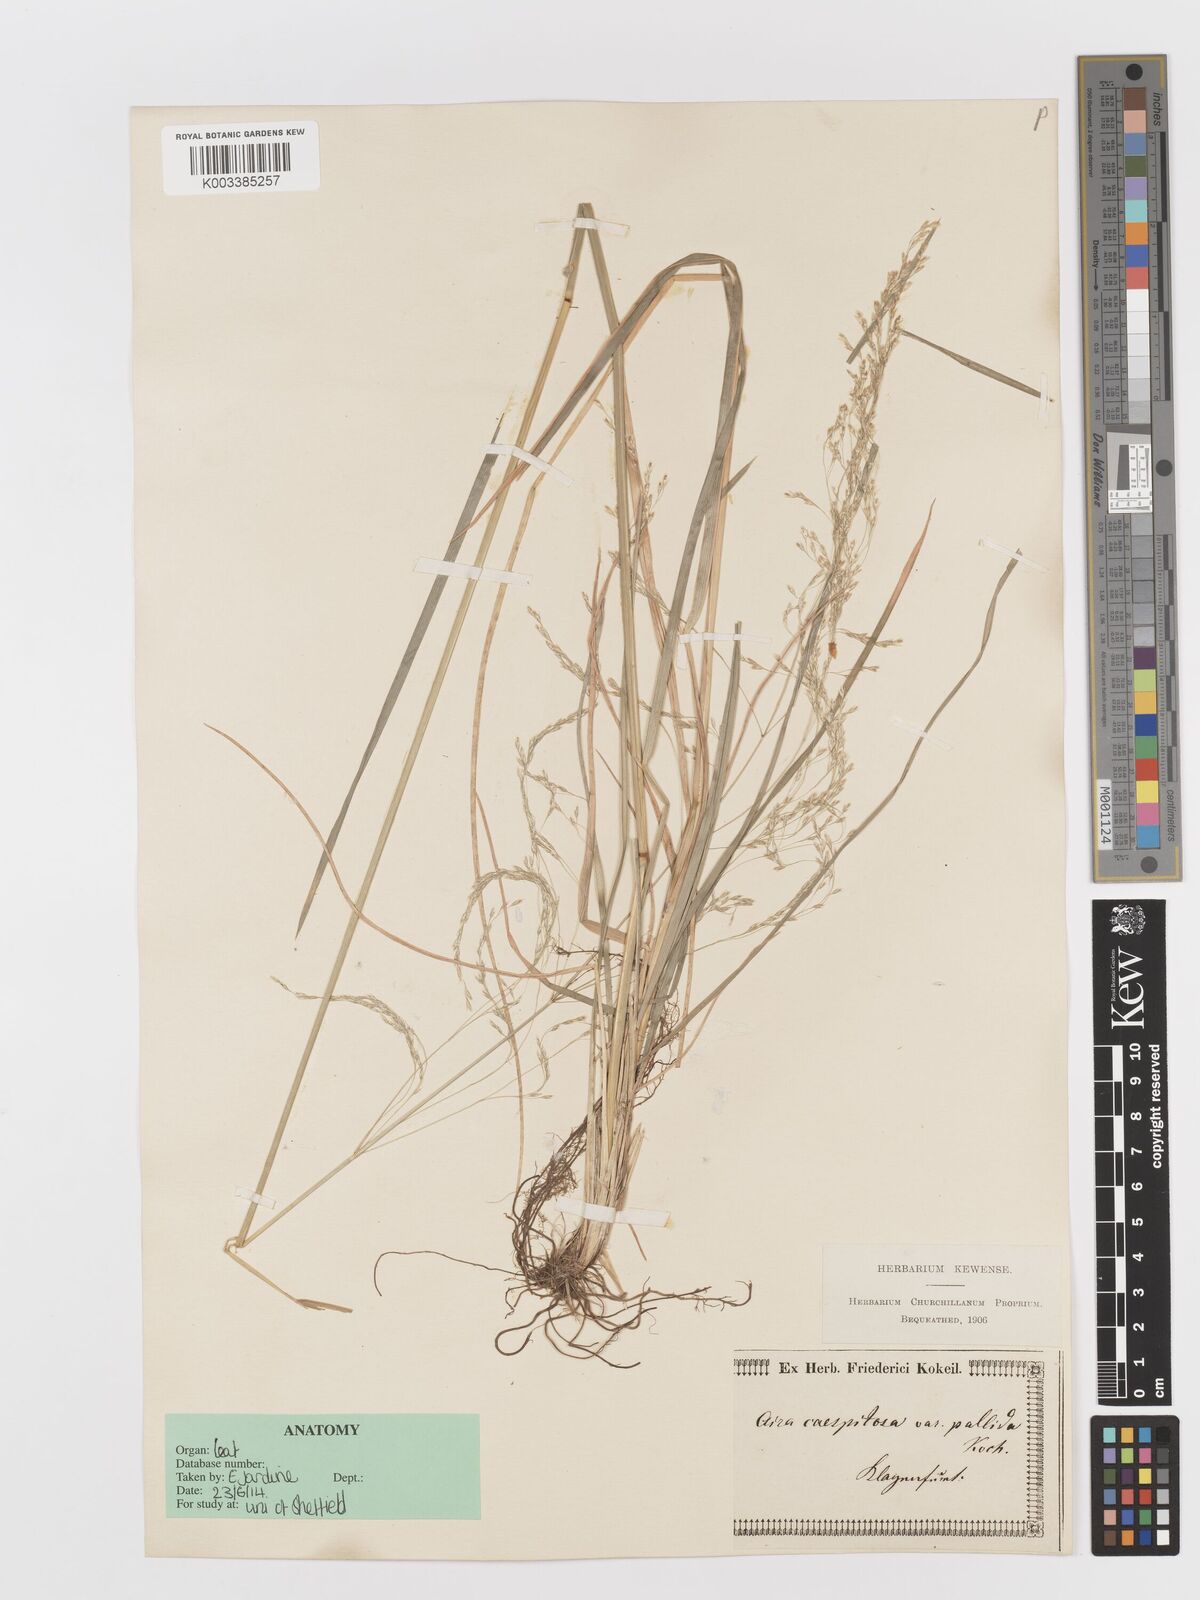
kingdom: Plantae
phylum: Tracheophyta
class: Liliopsida
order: Poales
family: Poaceae
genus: Deschampsia
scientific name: Deschampsia cespitosa
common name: Tufted hair-grass
